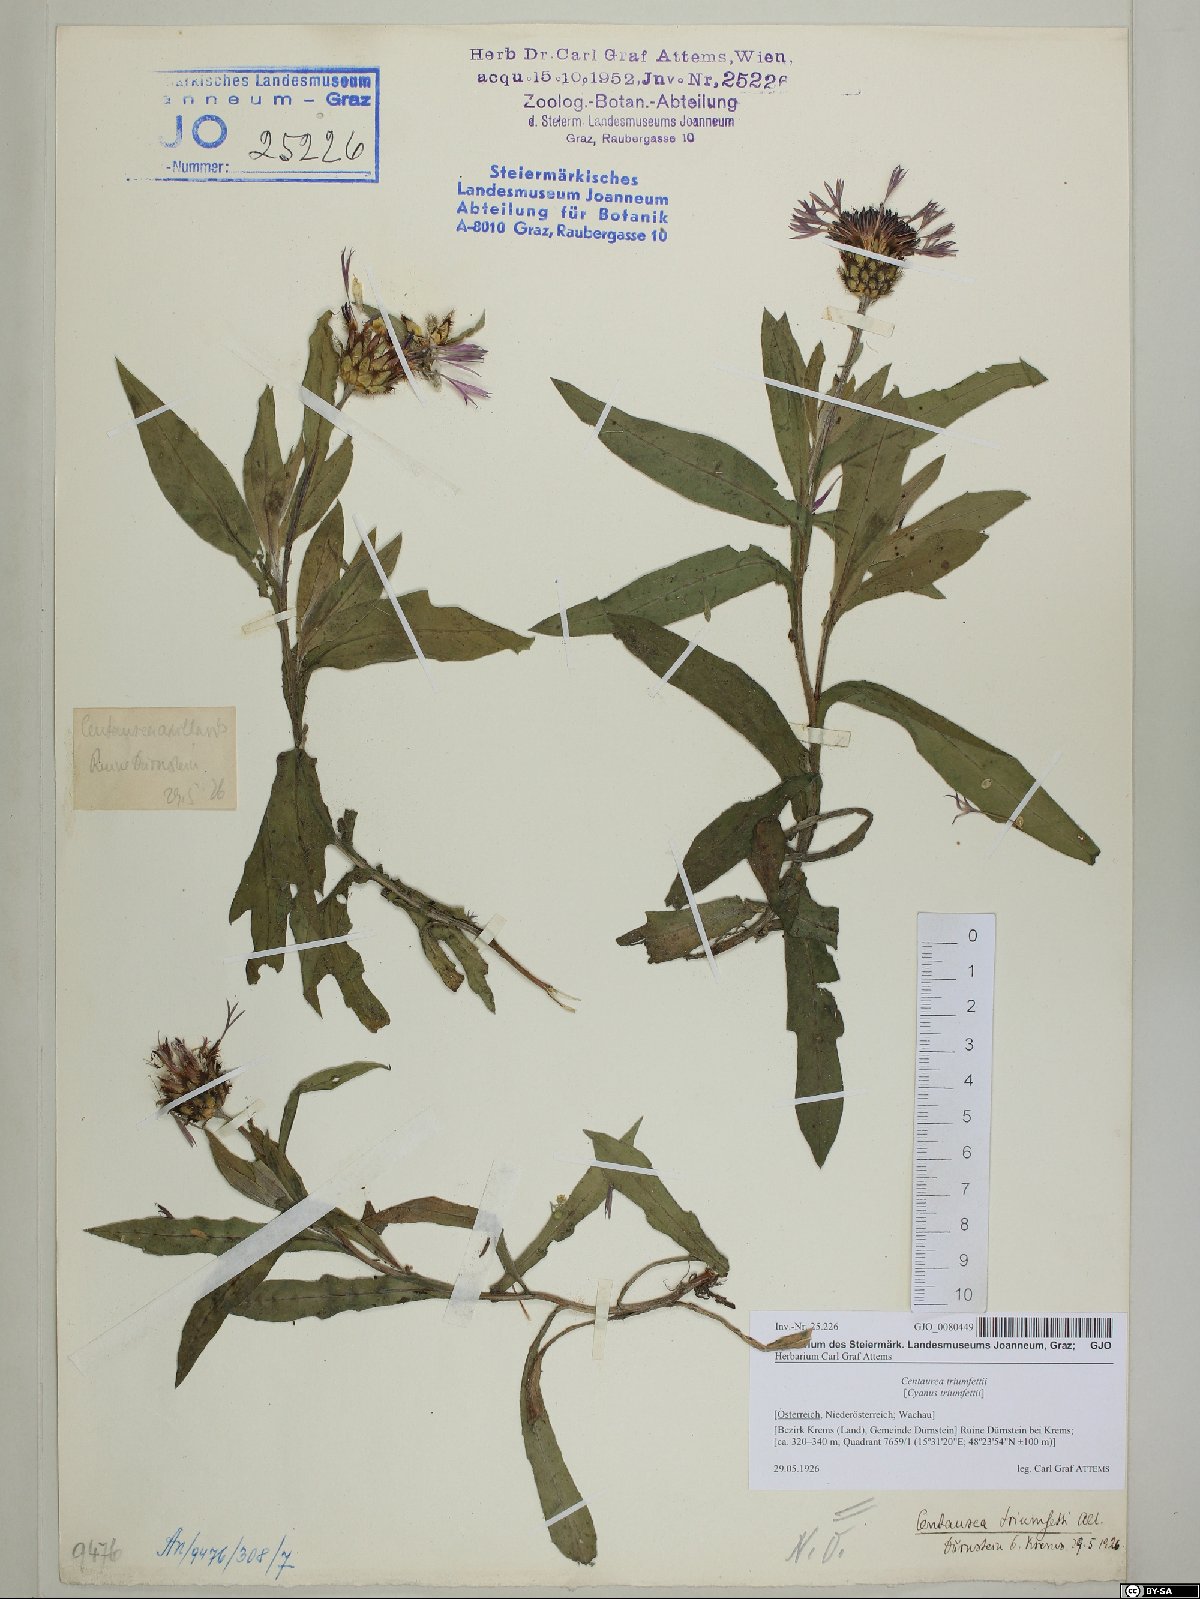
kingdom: Plantae
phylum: Tracheophyta
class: Magnoliopsida
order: Asterales
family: Asteraceae
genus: Centaurea
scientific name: Centaurea triumfettii
